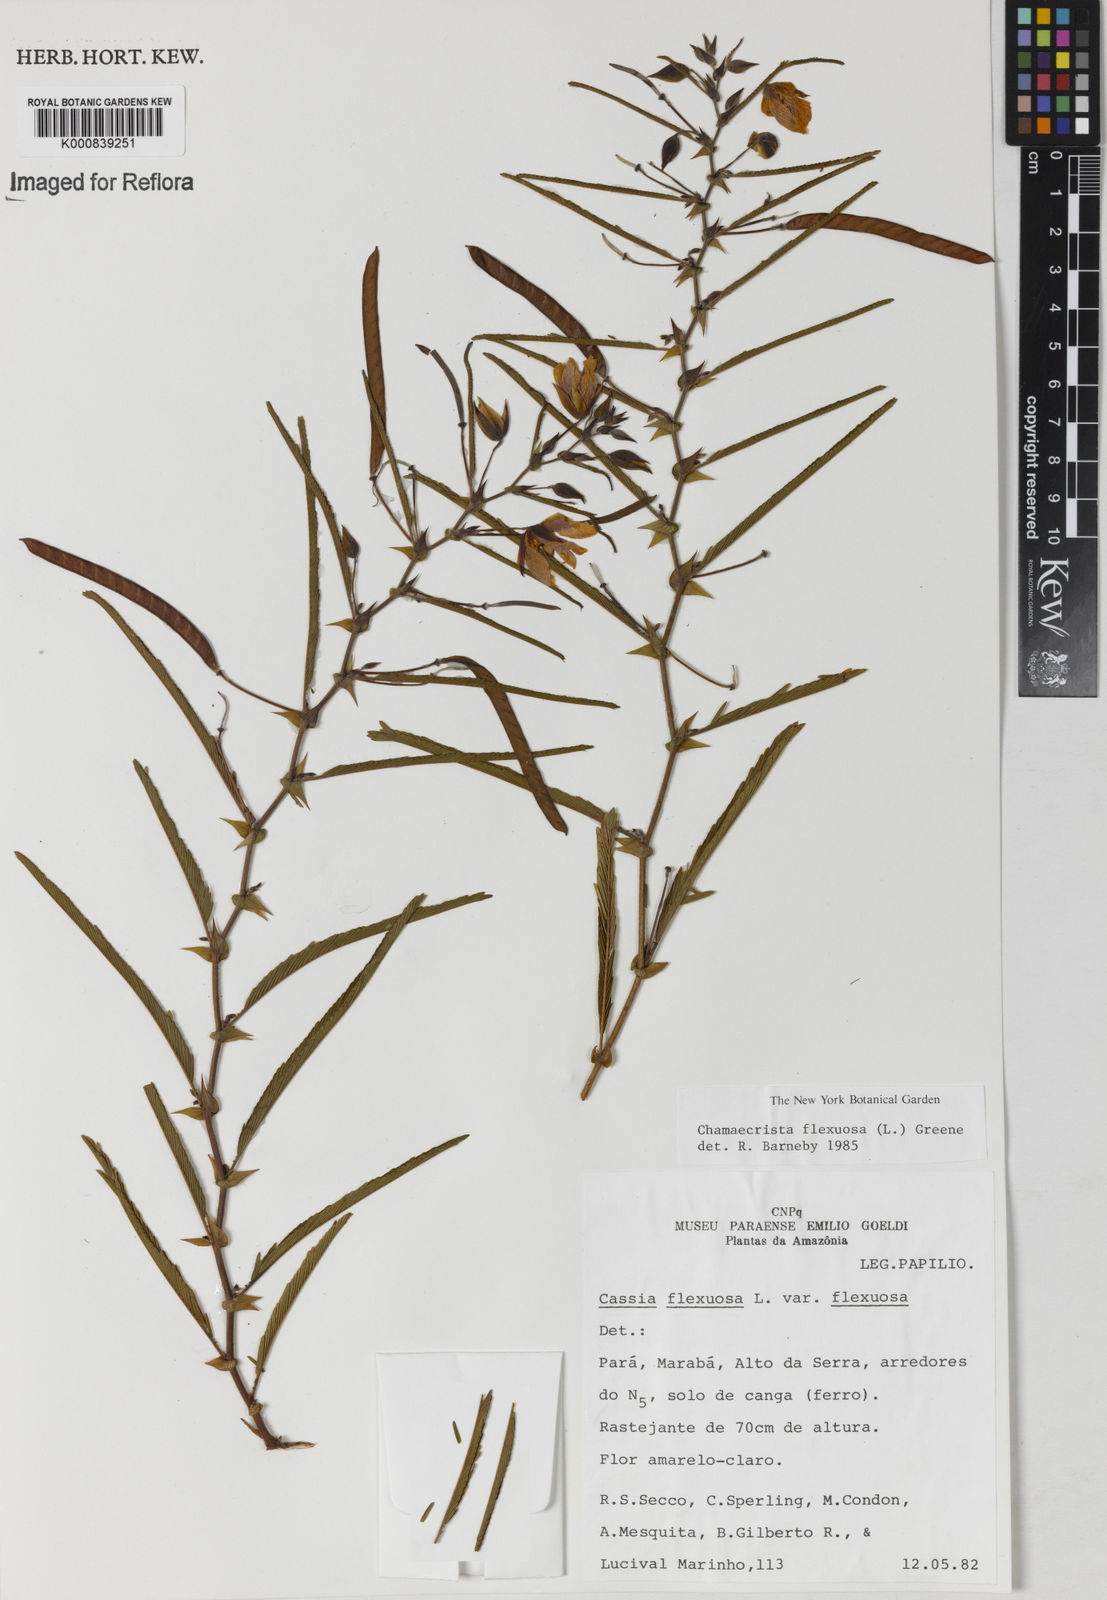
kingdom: Plantae
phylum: Tracheophyta
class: Magnoliopsida
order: Fabales
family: Fabaceae
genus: Chamaecrista
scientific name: Chamaecrista flexuosa
